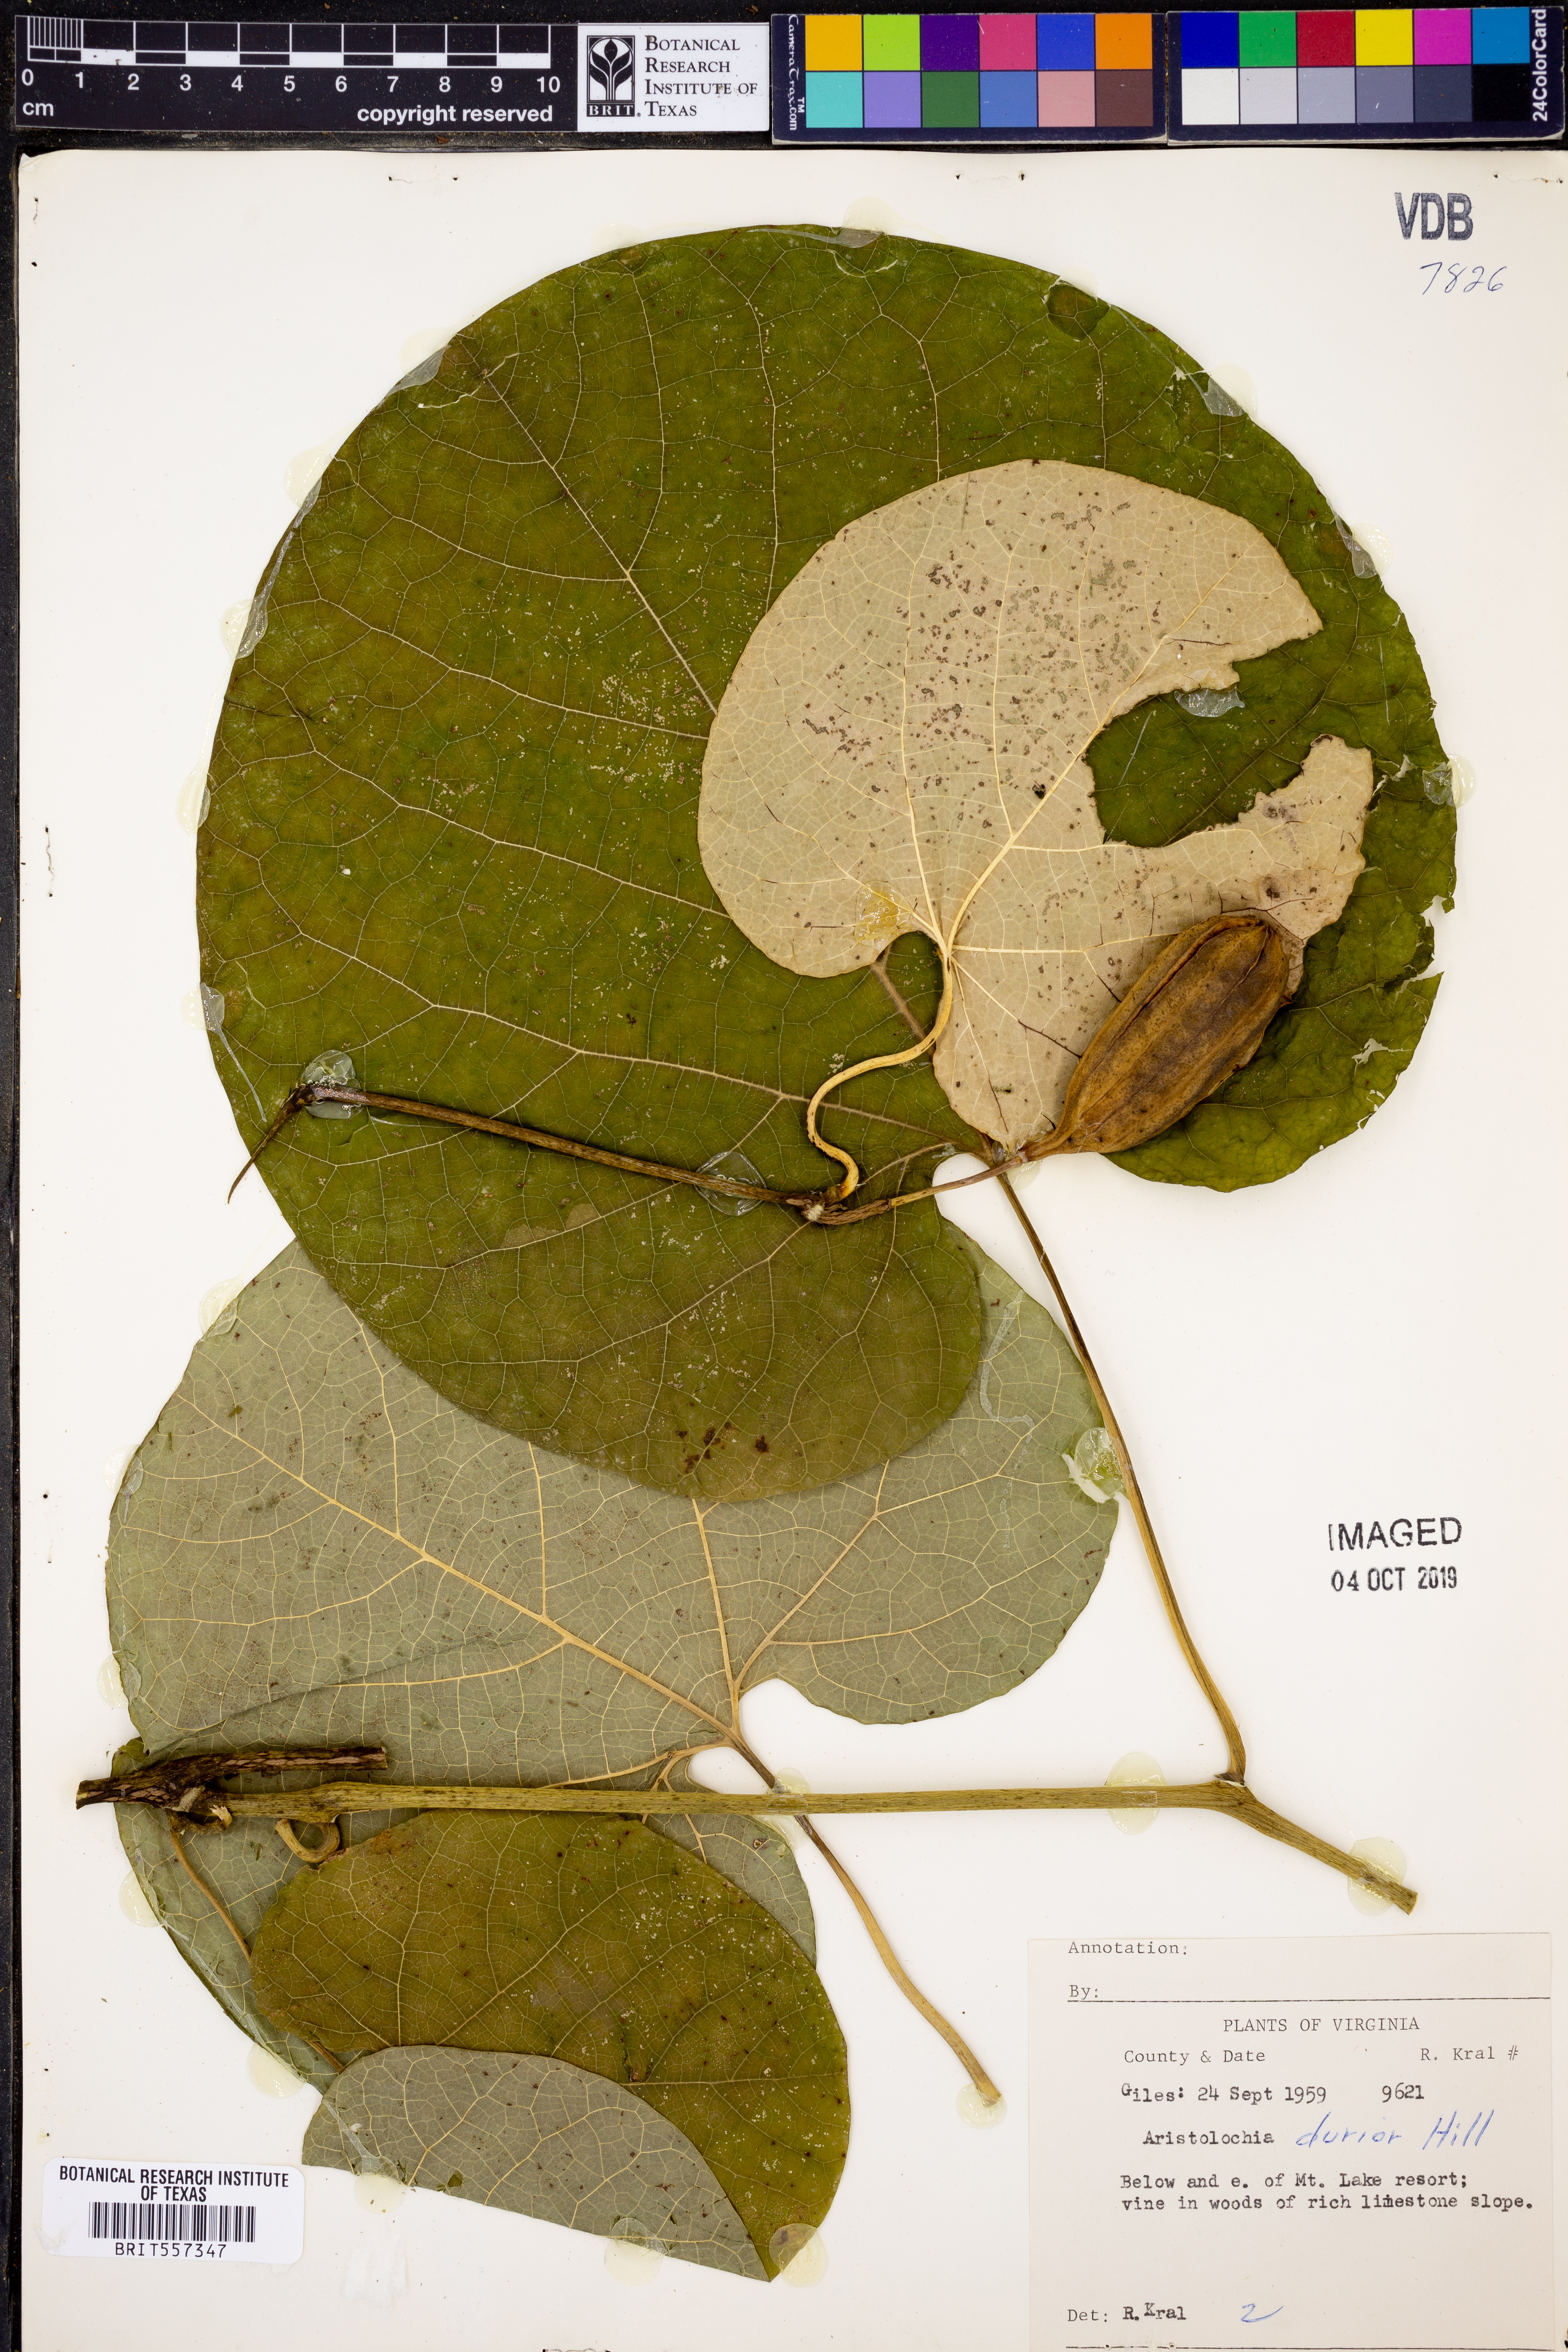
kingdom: Plantae
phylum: Tracheophyta
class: Magnoliopsida
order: Lamiales
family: Bignoniaceae
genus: Bignonia
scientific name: Bignonia capreolata
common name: Crossvine
